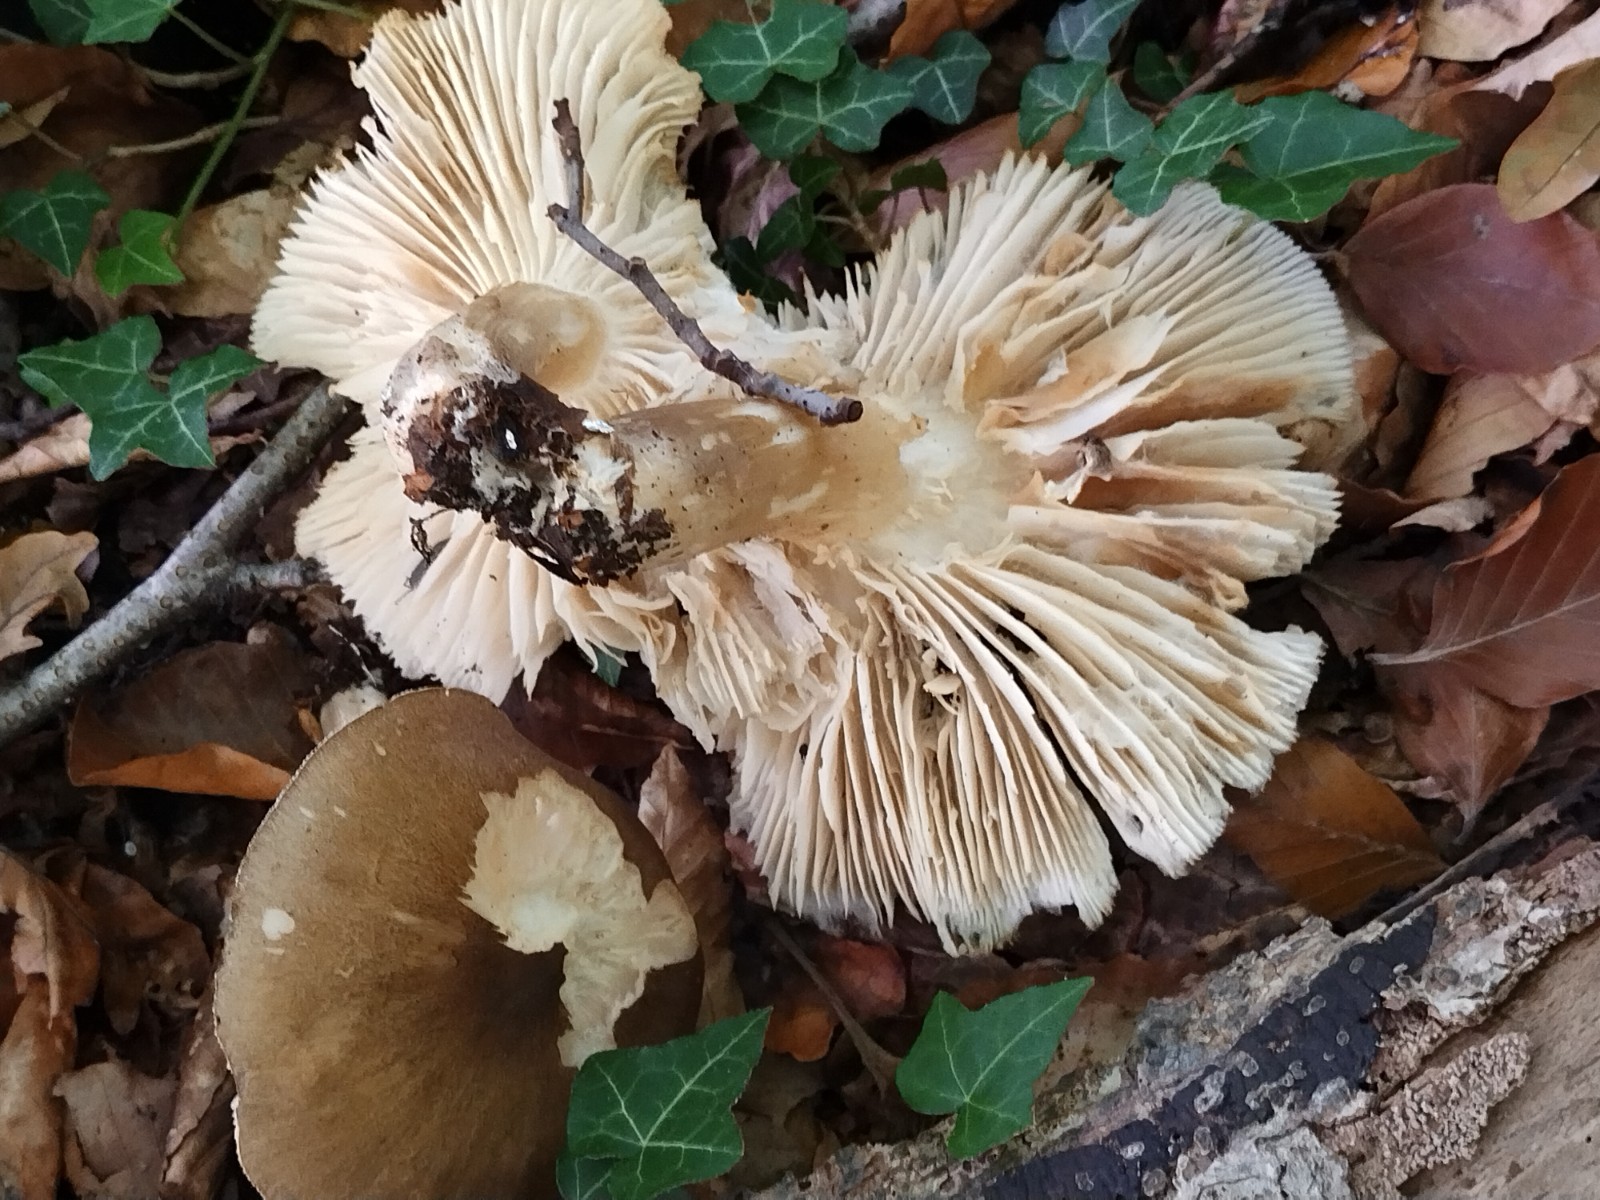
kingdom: Fungi
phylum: Basidiomycota
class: Agaricomycetes
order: Agaricales
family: Tricholomataceae
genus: Megacollybia
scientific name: Megacollybia platyphylla
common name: bredbladet væbnerhat
